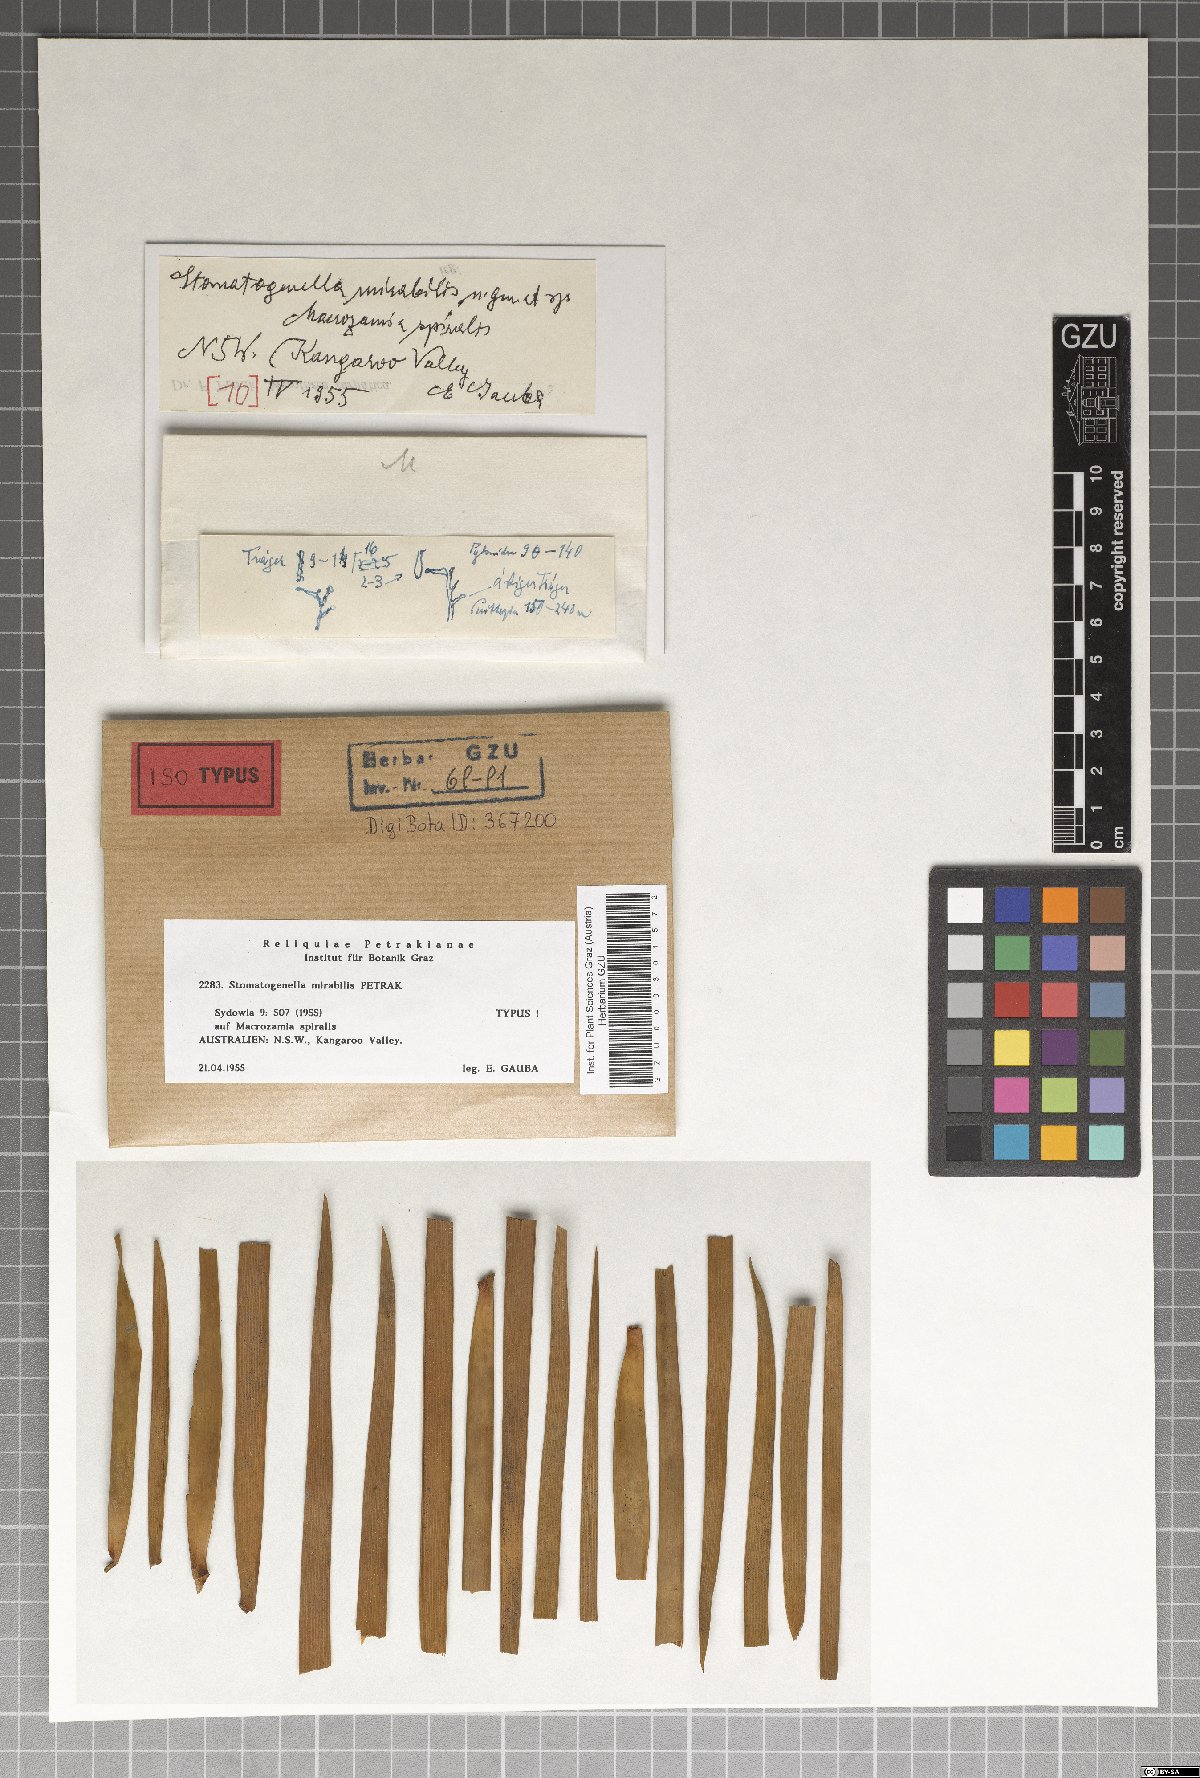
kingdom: Fungi
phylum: Ascomycota
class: Sordariomycetes
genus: Stomatogenella
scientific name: Stomatogenella mirabilis
